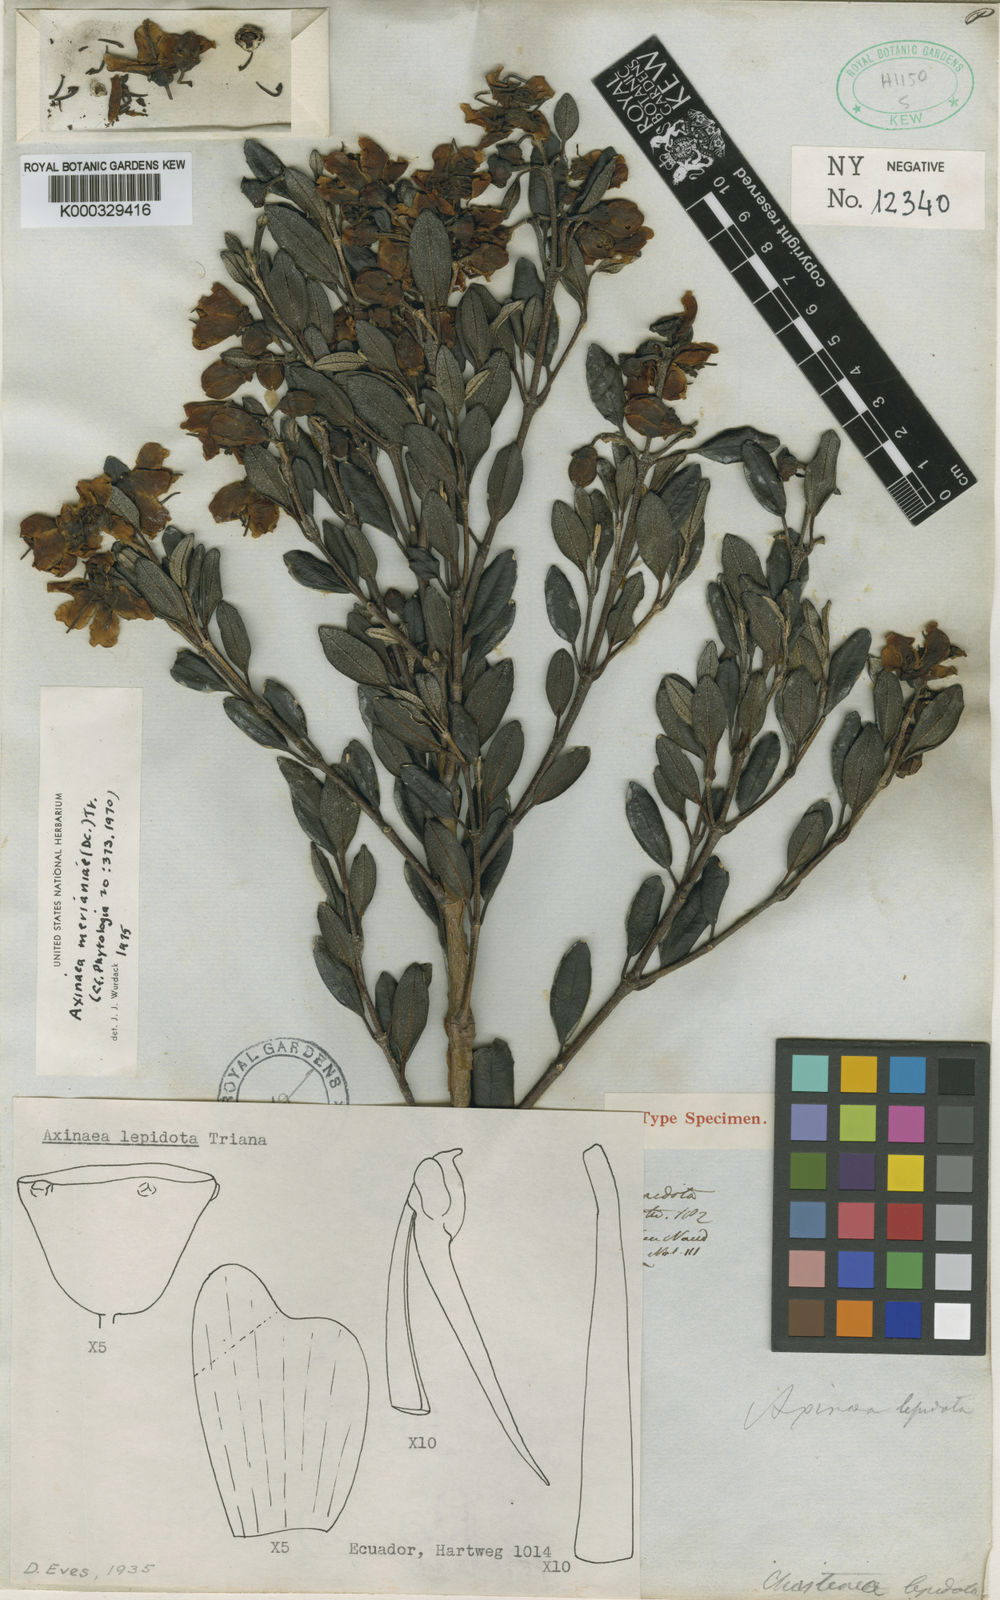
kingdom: Plantae
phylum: Tracheophyta
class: Magnoliopsida
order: Myrtales
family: Melastomataceae
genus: Axinaea
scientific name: Axinaea merianiae
